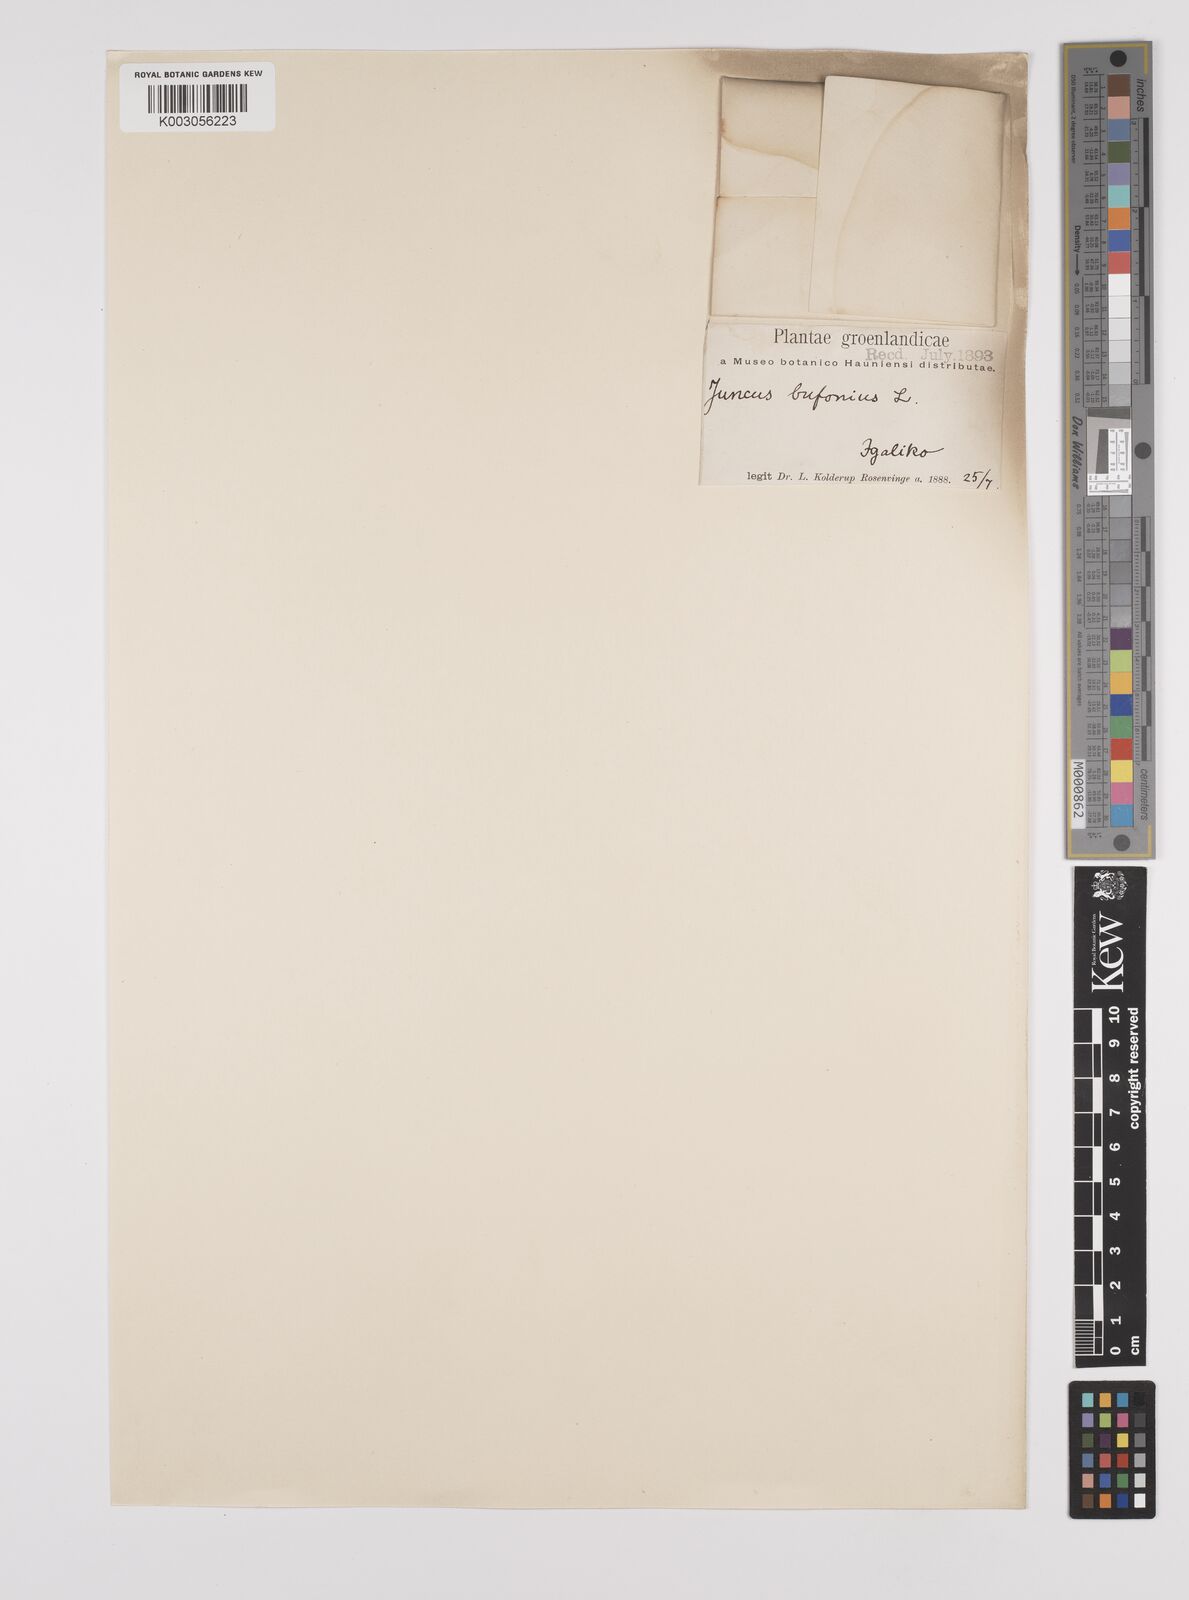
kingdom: Plantae
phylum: Tracheophyta
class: Liliopsida
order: Poales
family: Juncaceae
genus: Juncus
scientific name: Juncus bufonius
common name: Toad rush
